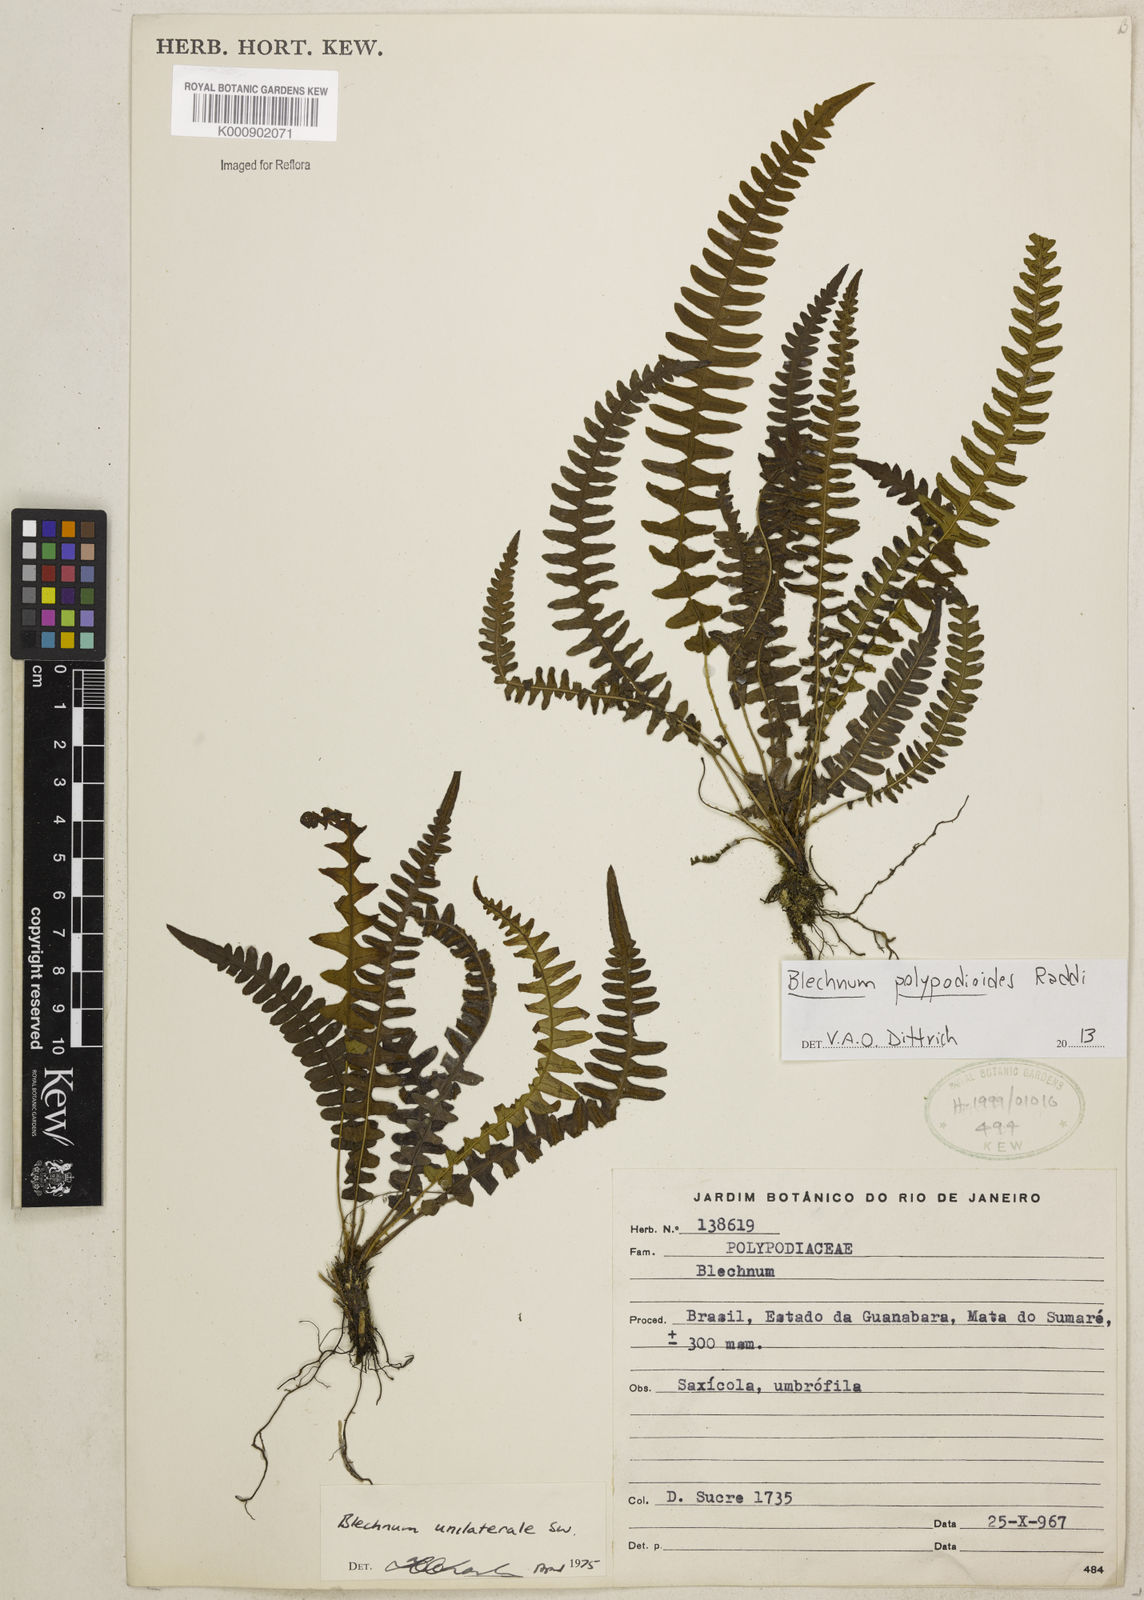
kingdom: Plantae
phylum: Tracheophyta
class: Polypodiopsida
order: Polypodiales
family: Blechnaceae
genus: Blechnum
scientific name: Blechnum polypodioides
